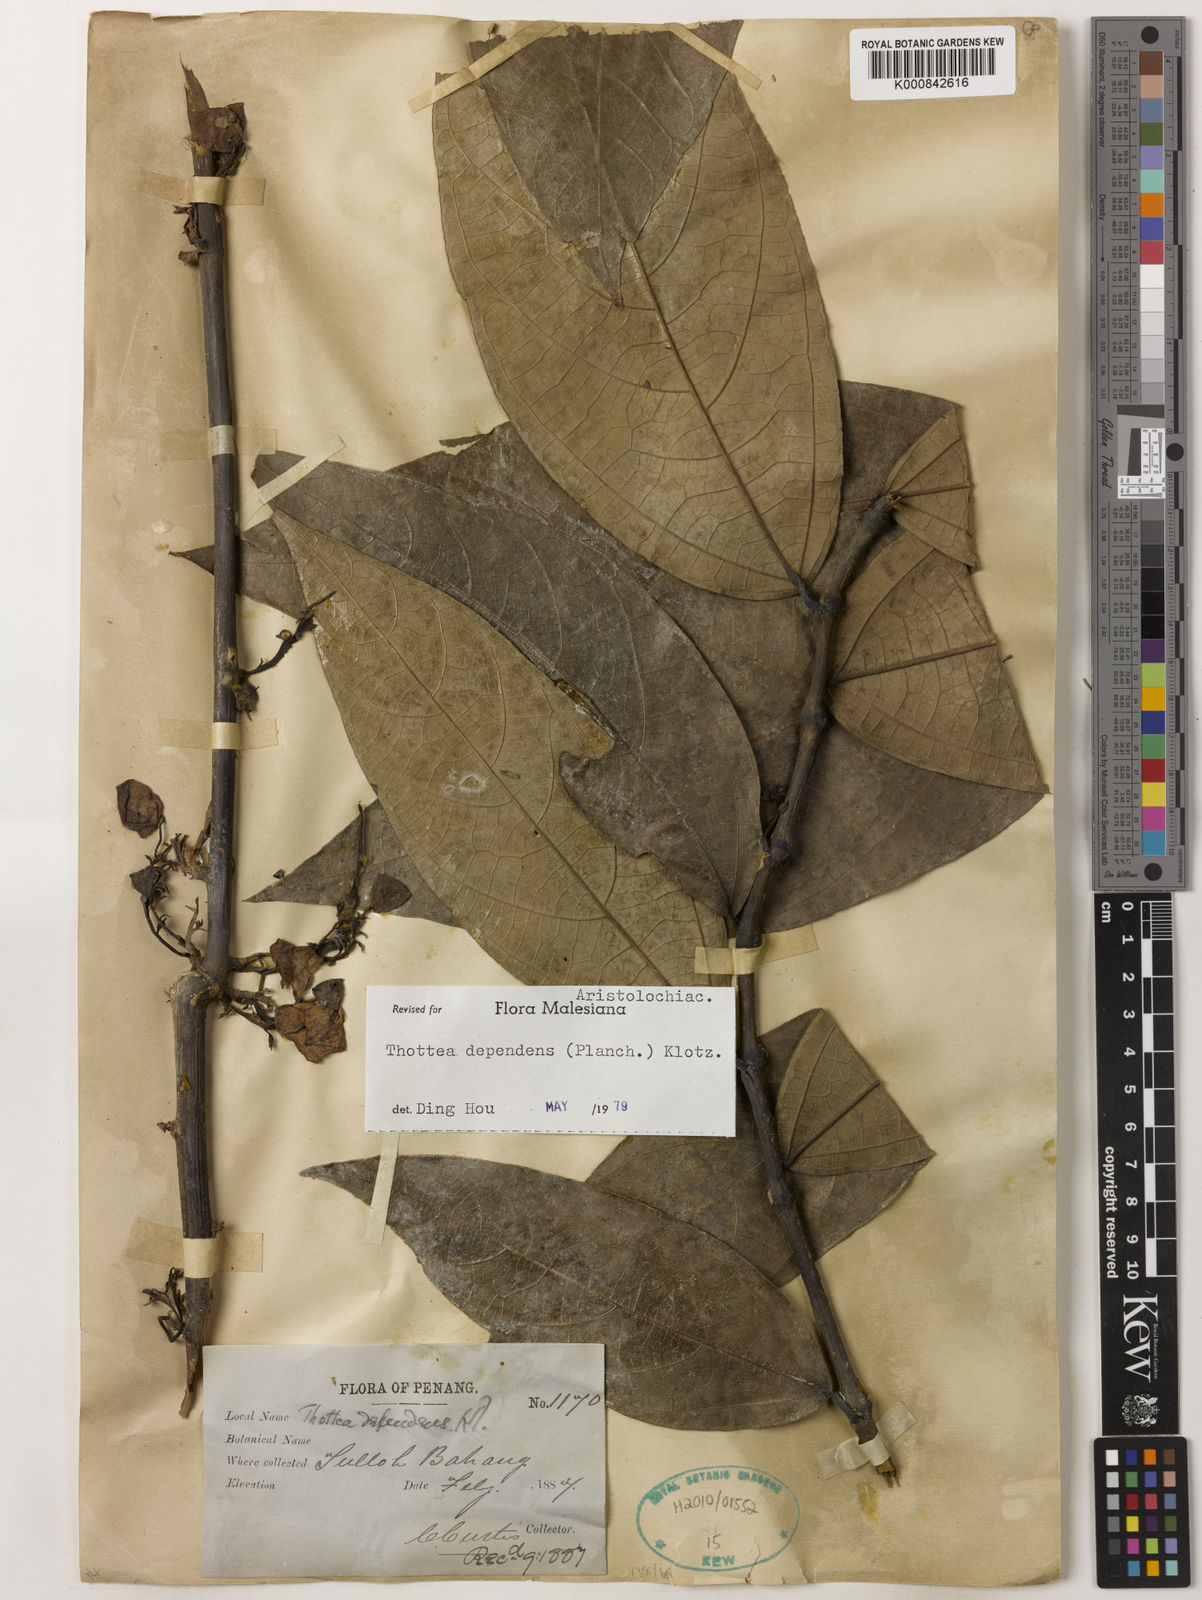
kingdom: Plantae
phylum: Tracheophyta
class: Magnoliopsida
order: Piperales
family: Aristolochiaceae
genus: Thottea
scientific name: Thottea dependens
